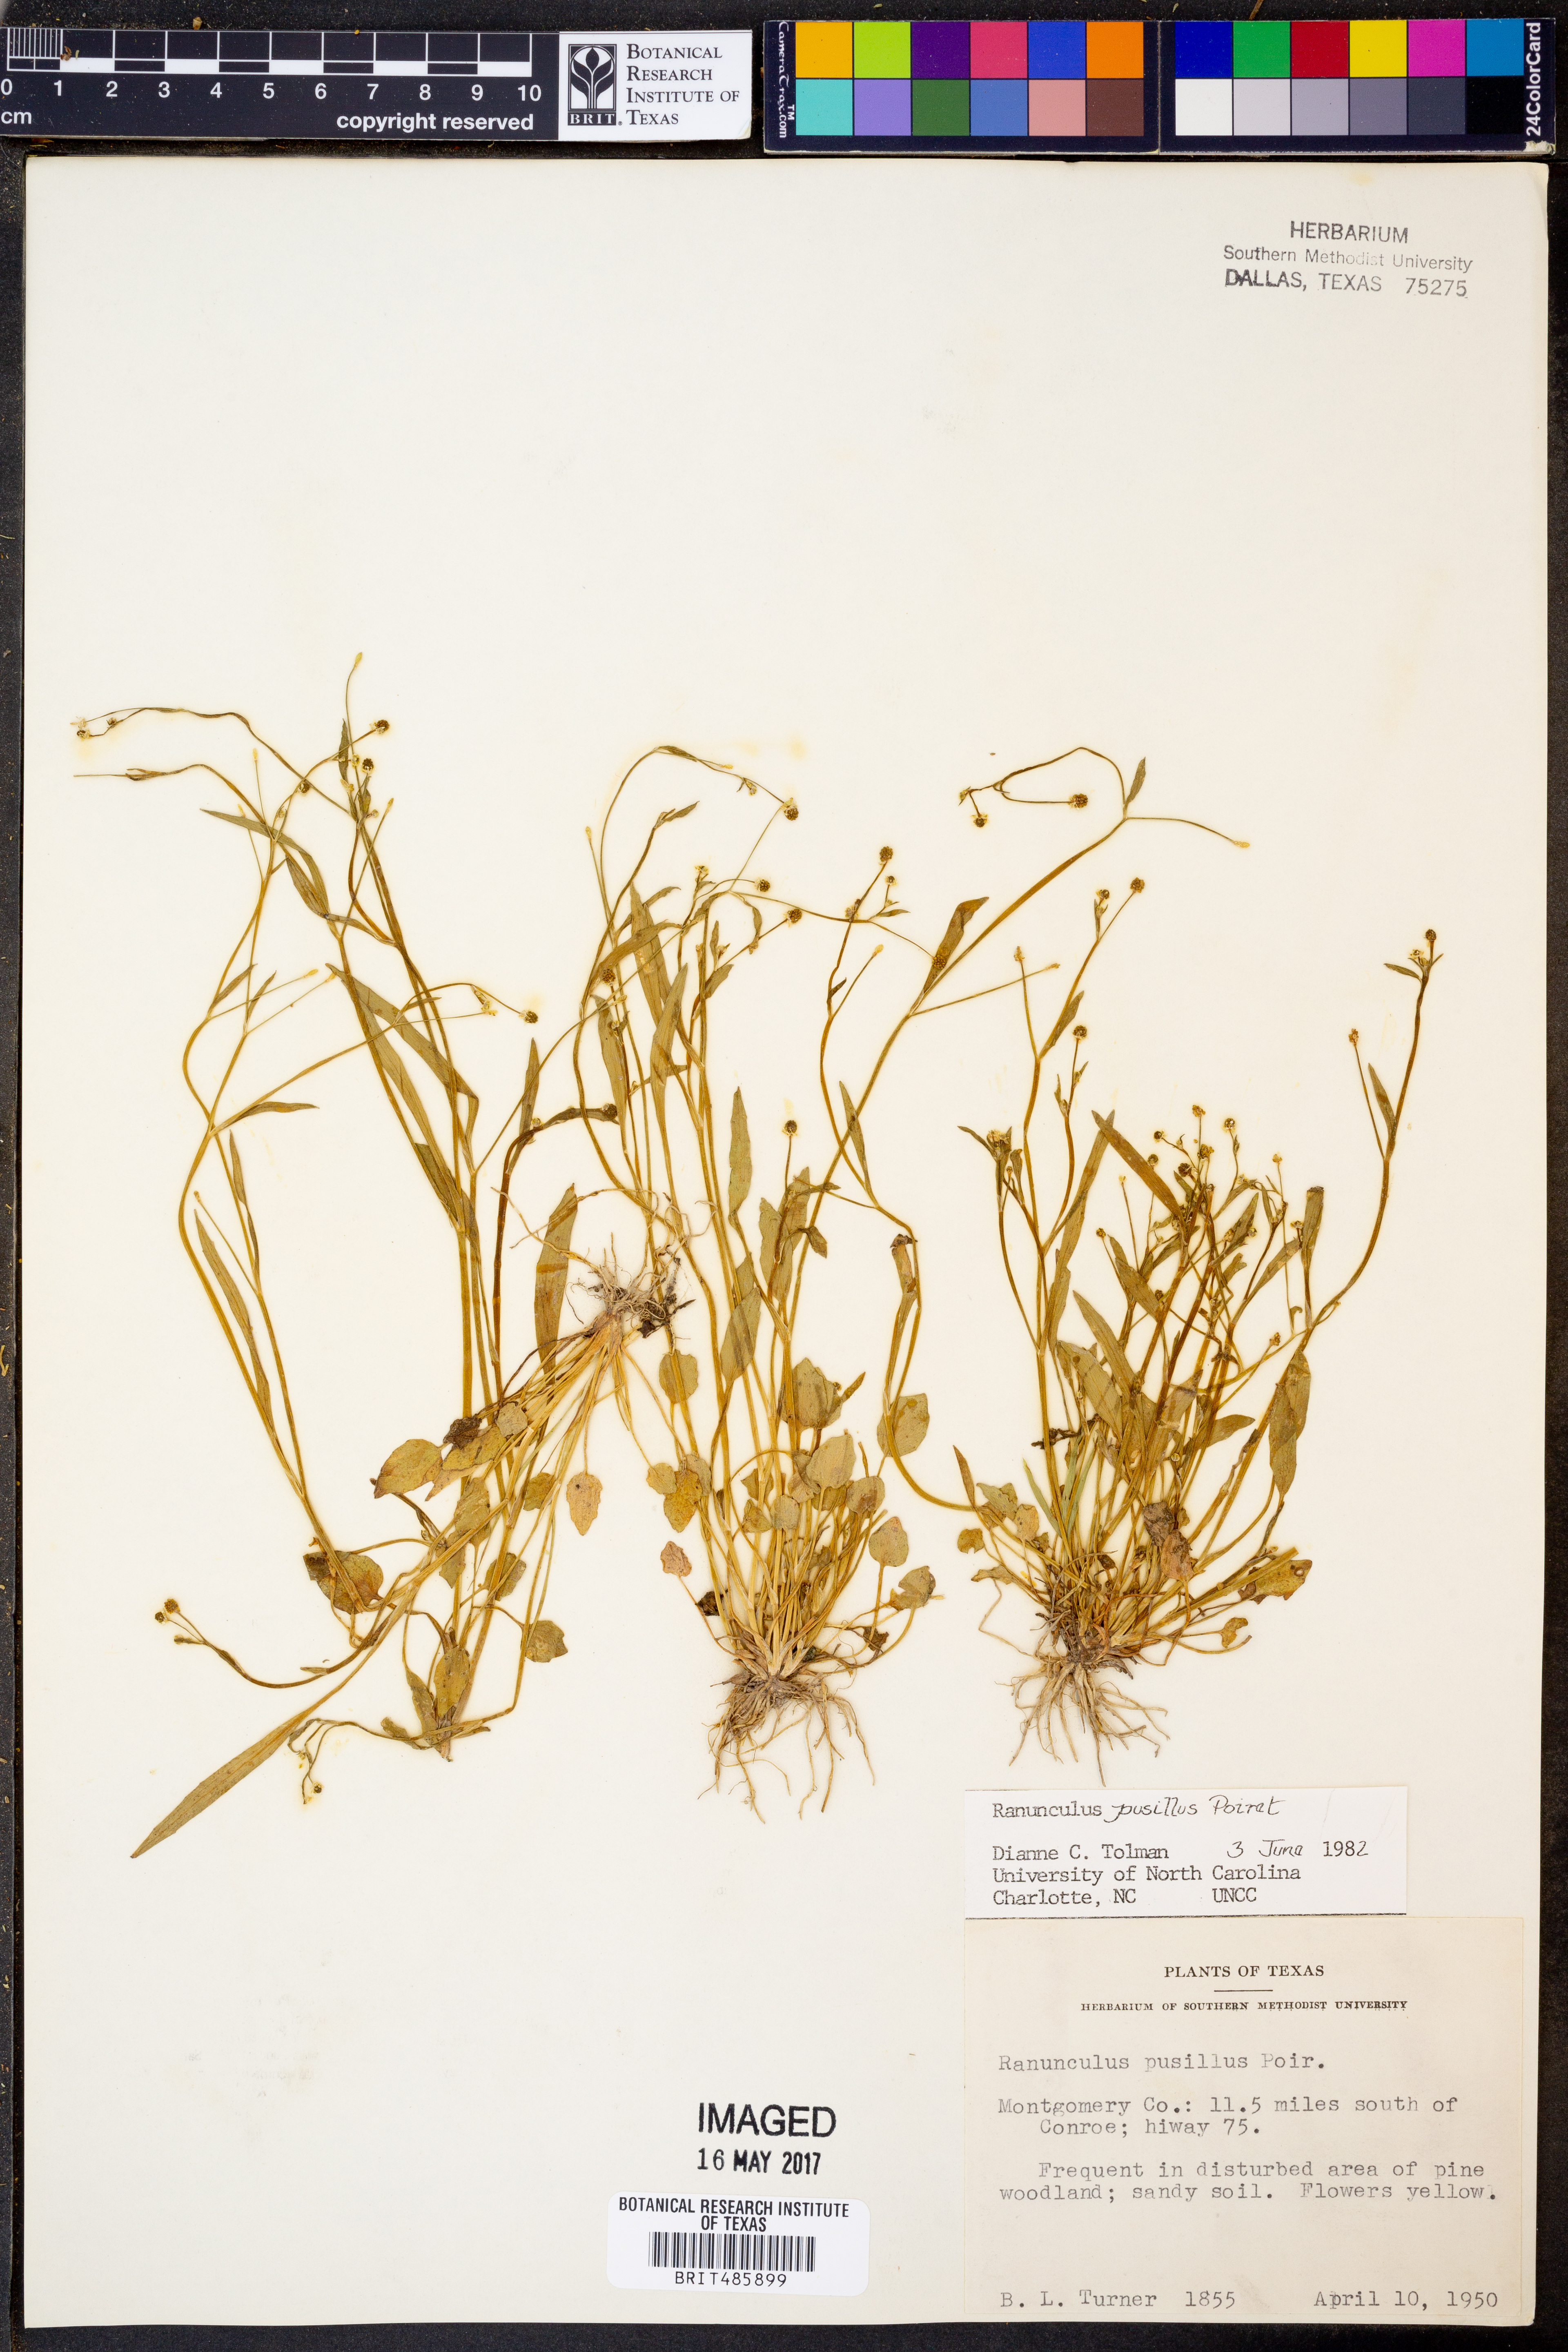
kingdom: Plantae
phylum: Tracheophyta
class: Magnoliopsida
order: Ranunculales
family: Ranunculaceae
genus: Ranunculus
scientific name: Ranunculus pusillus
